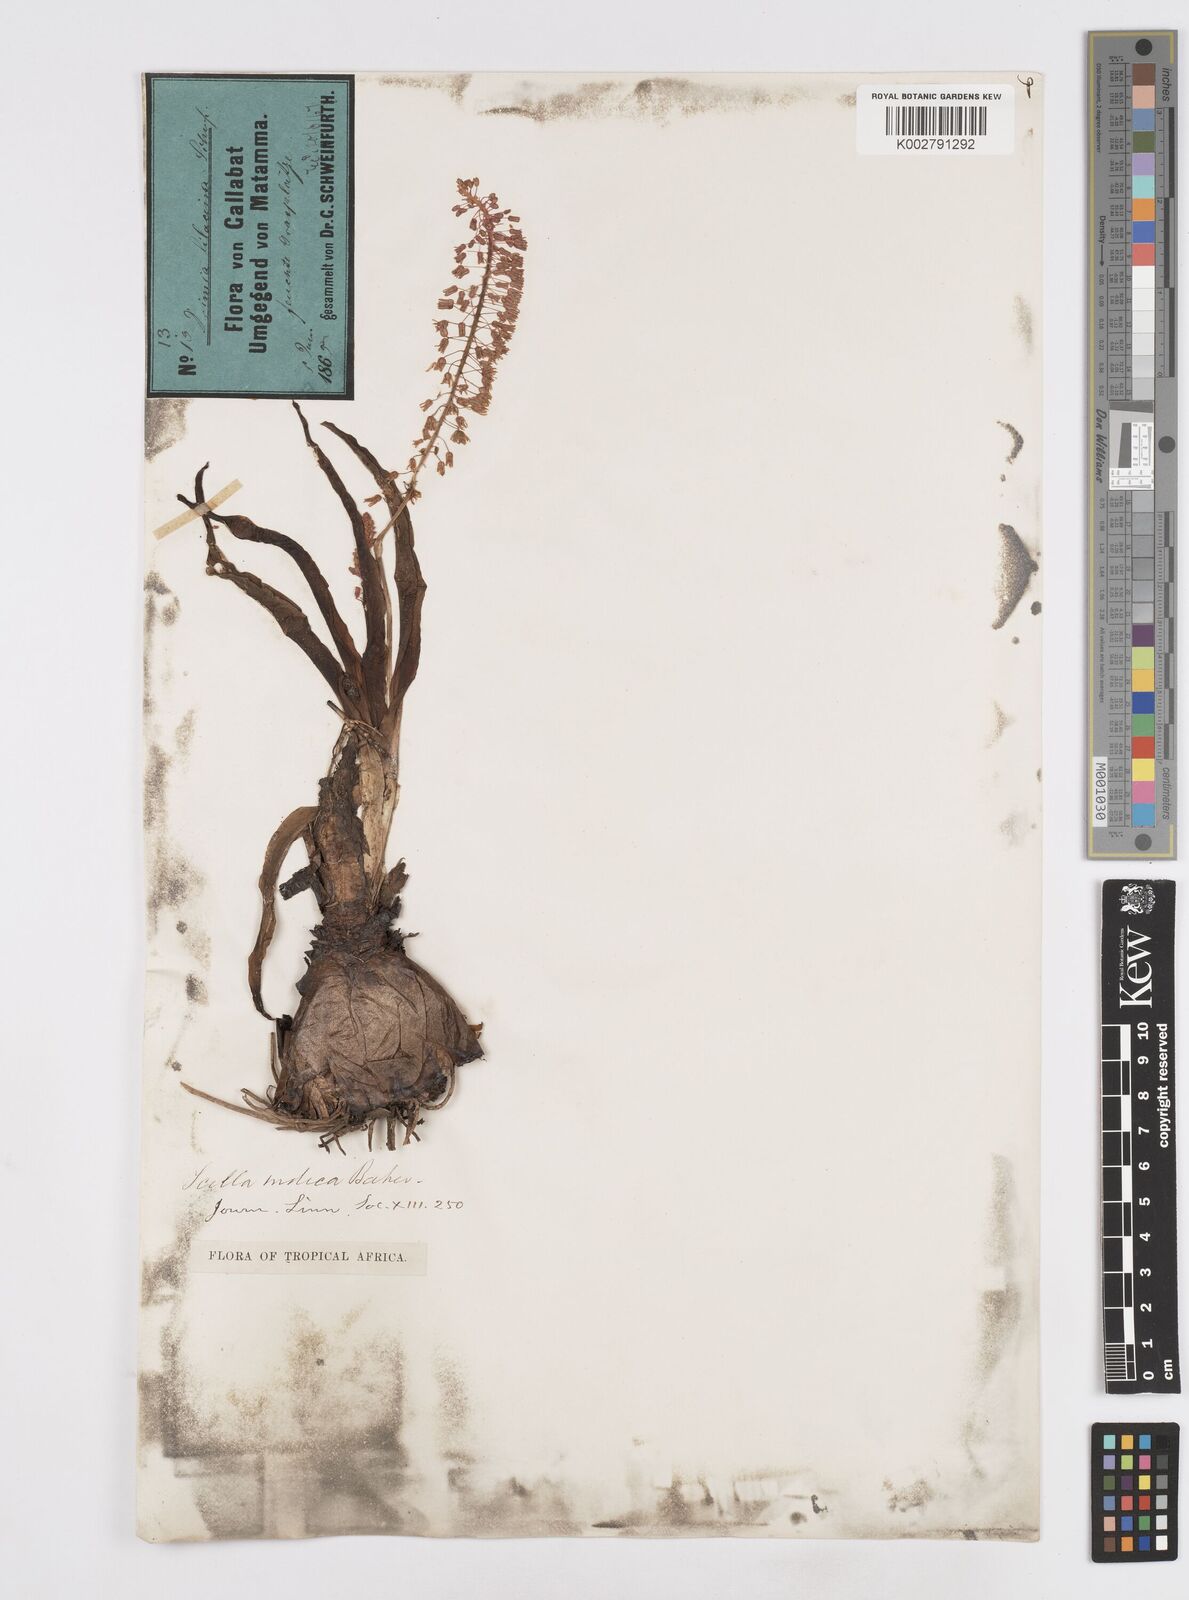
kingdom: Plantae
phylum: Tracheophyta
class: Liliopsida
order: Asparagales
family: Asparagaceae
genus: Ledebouria
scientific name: Ledebouria revoluta
